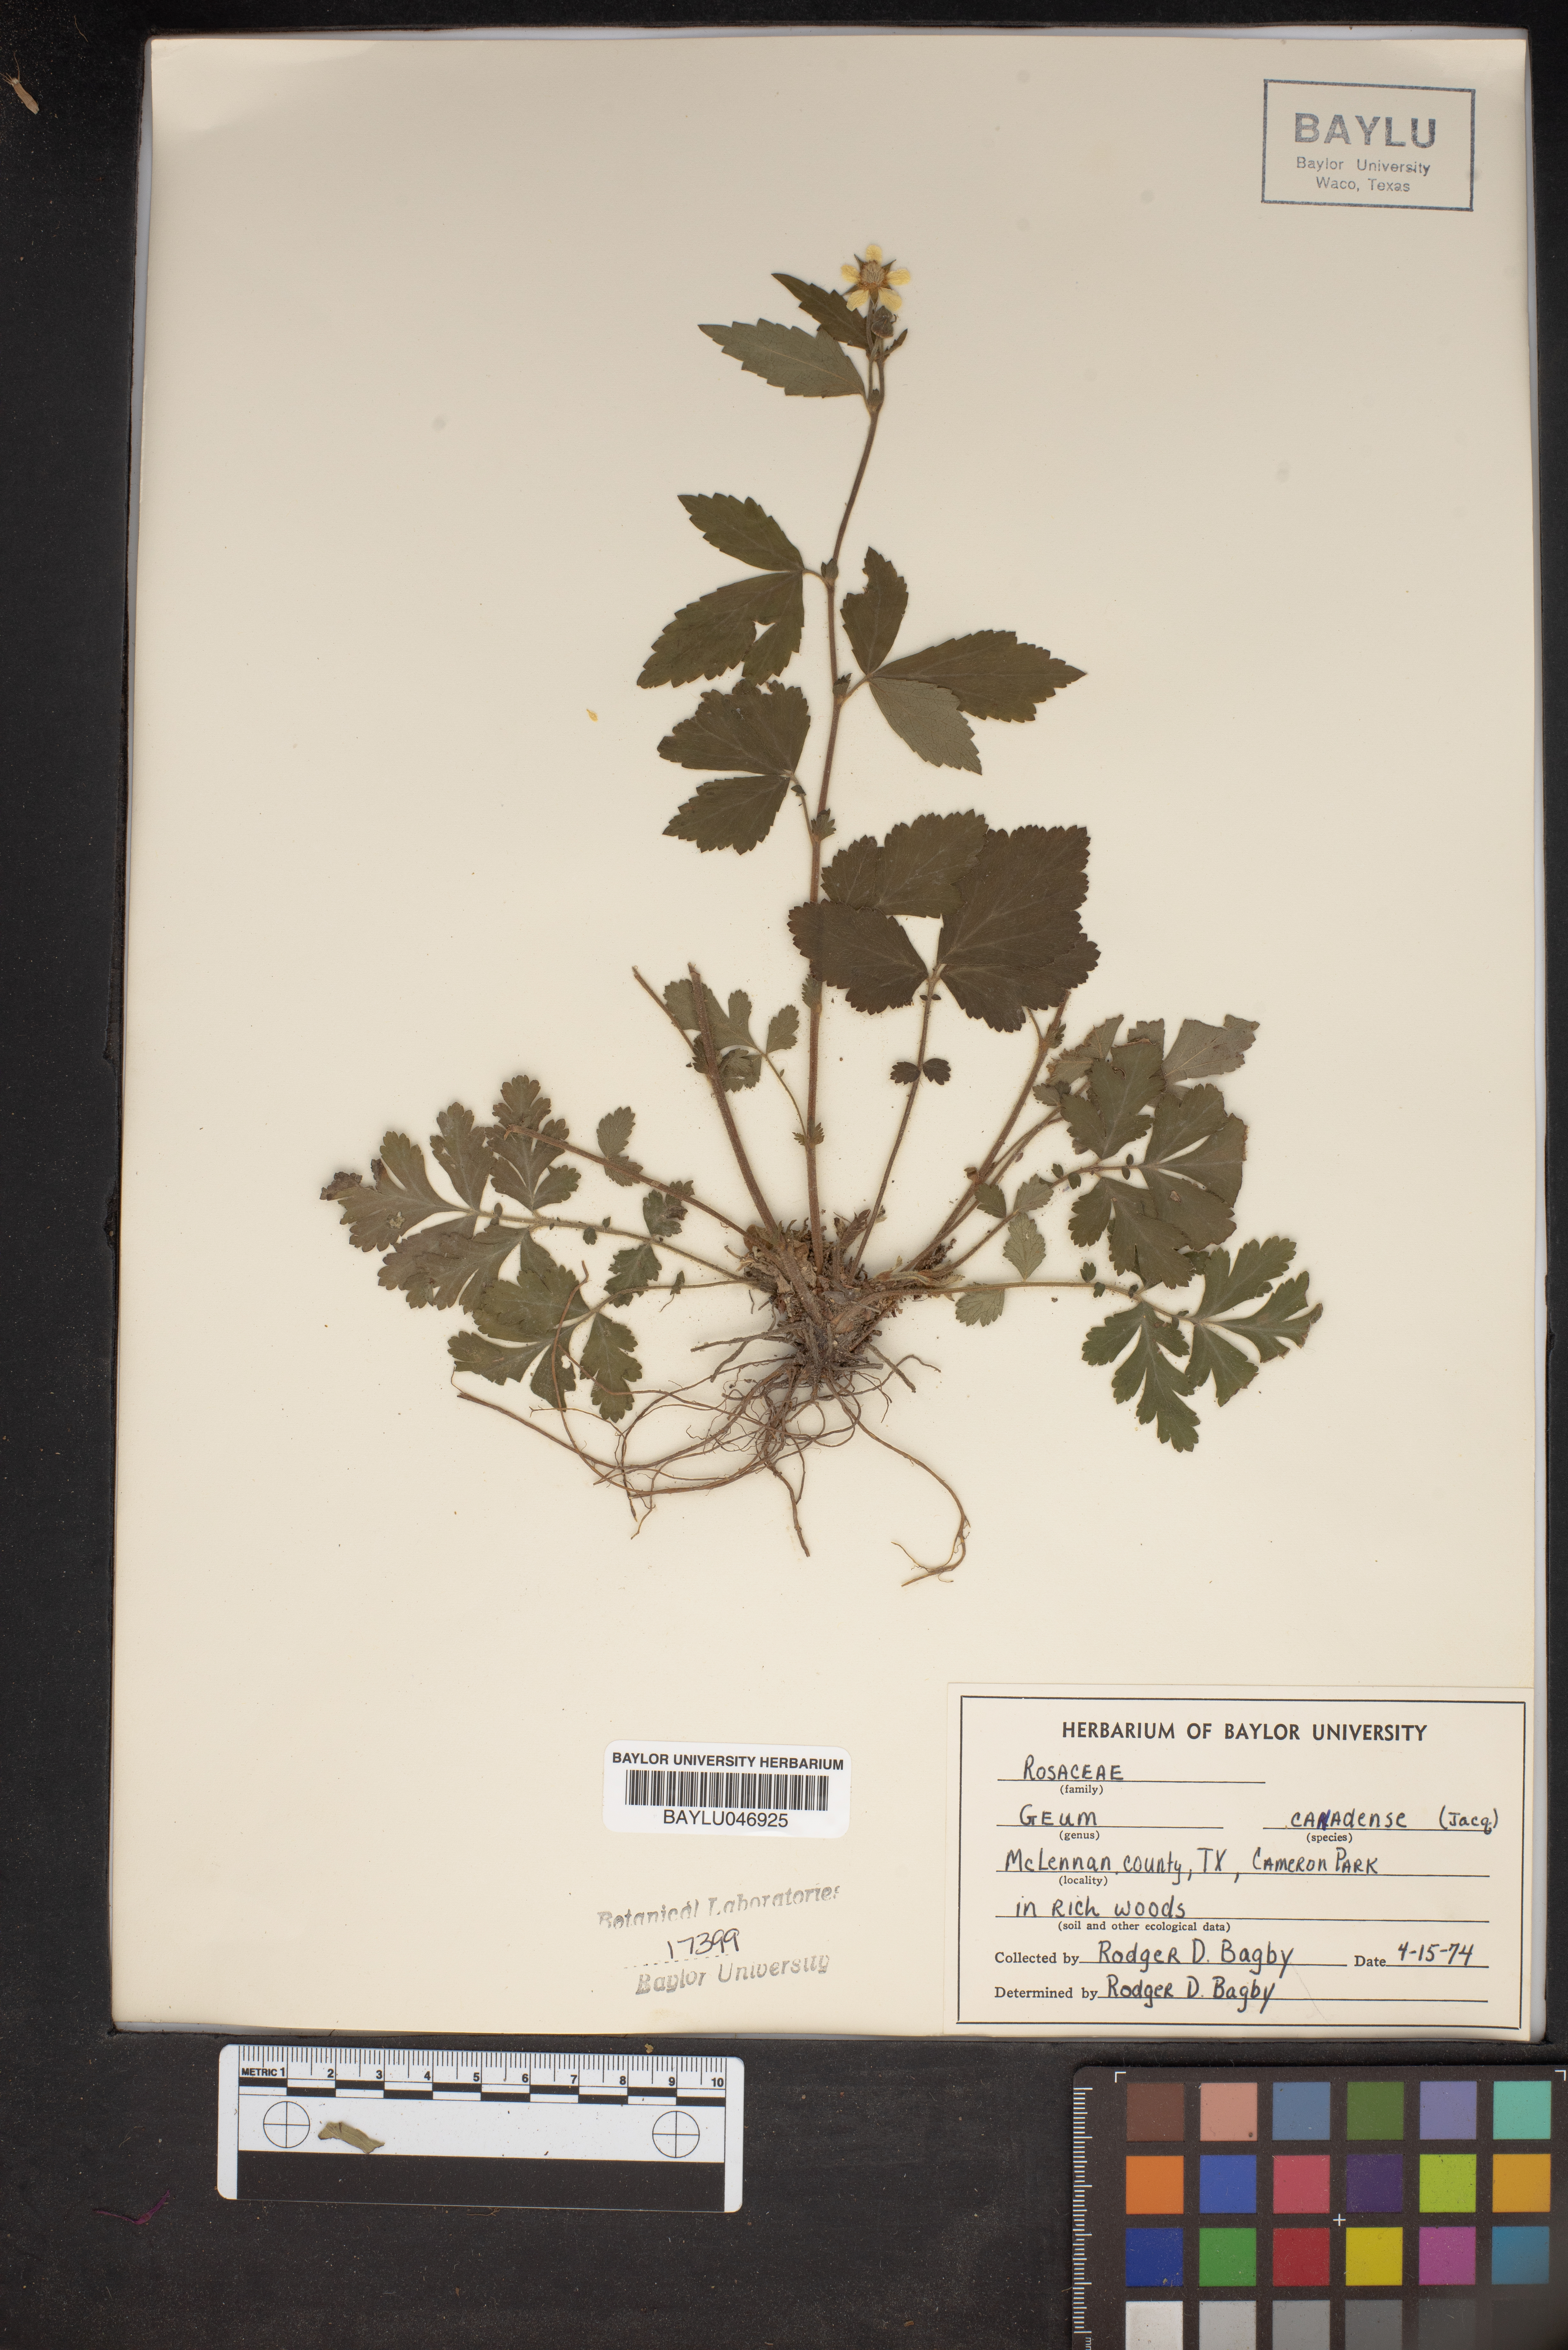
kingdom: Plantae
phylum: Tracheophyta
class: Magnoliopsida
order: Rosales
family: Rosaceae
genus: Geum
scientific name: Geum canadense
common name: White avens
